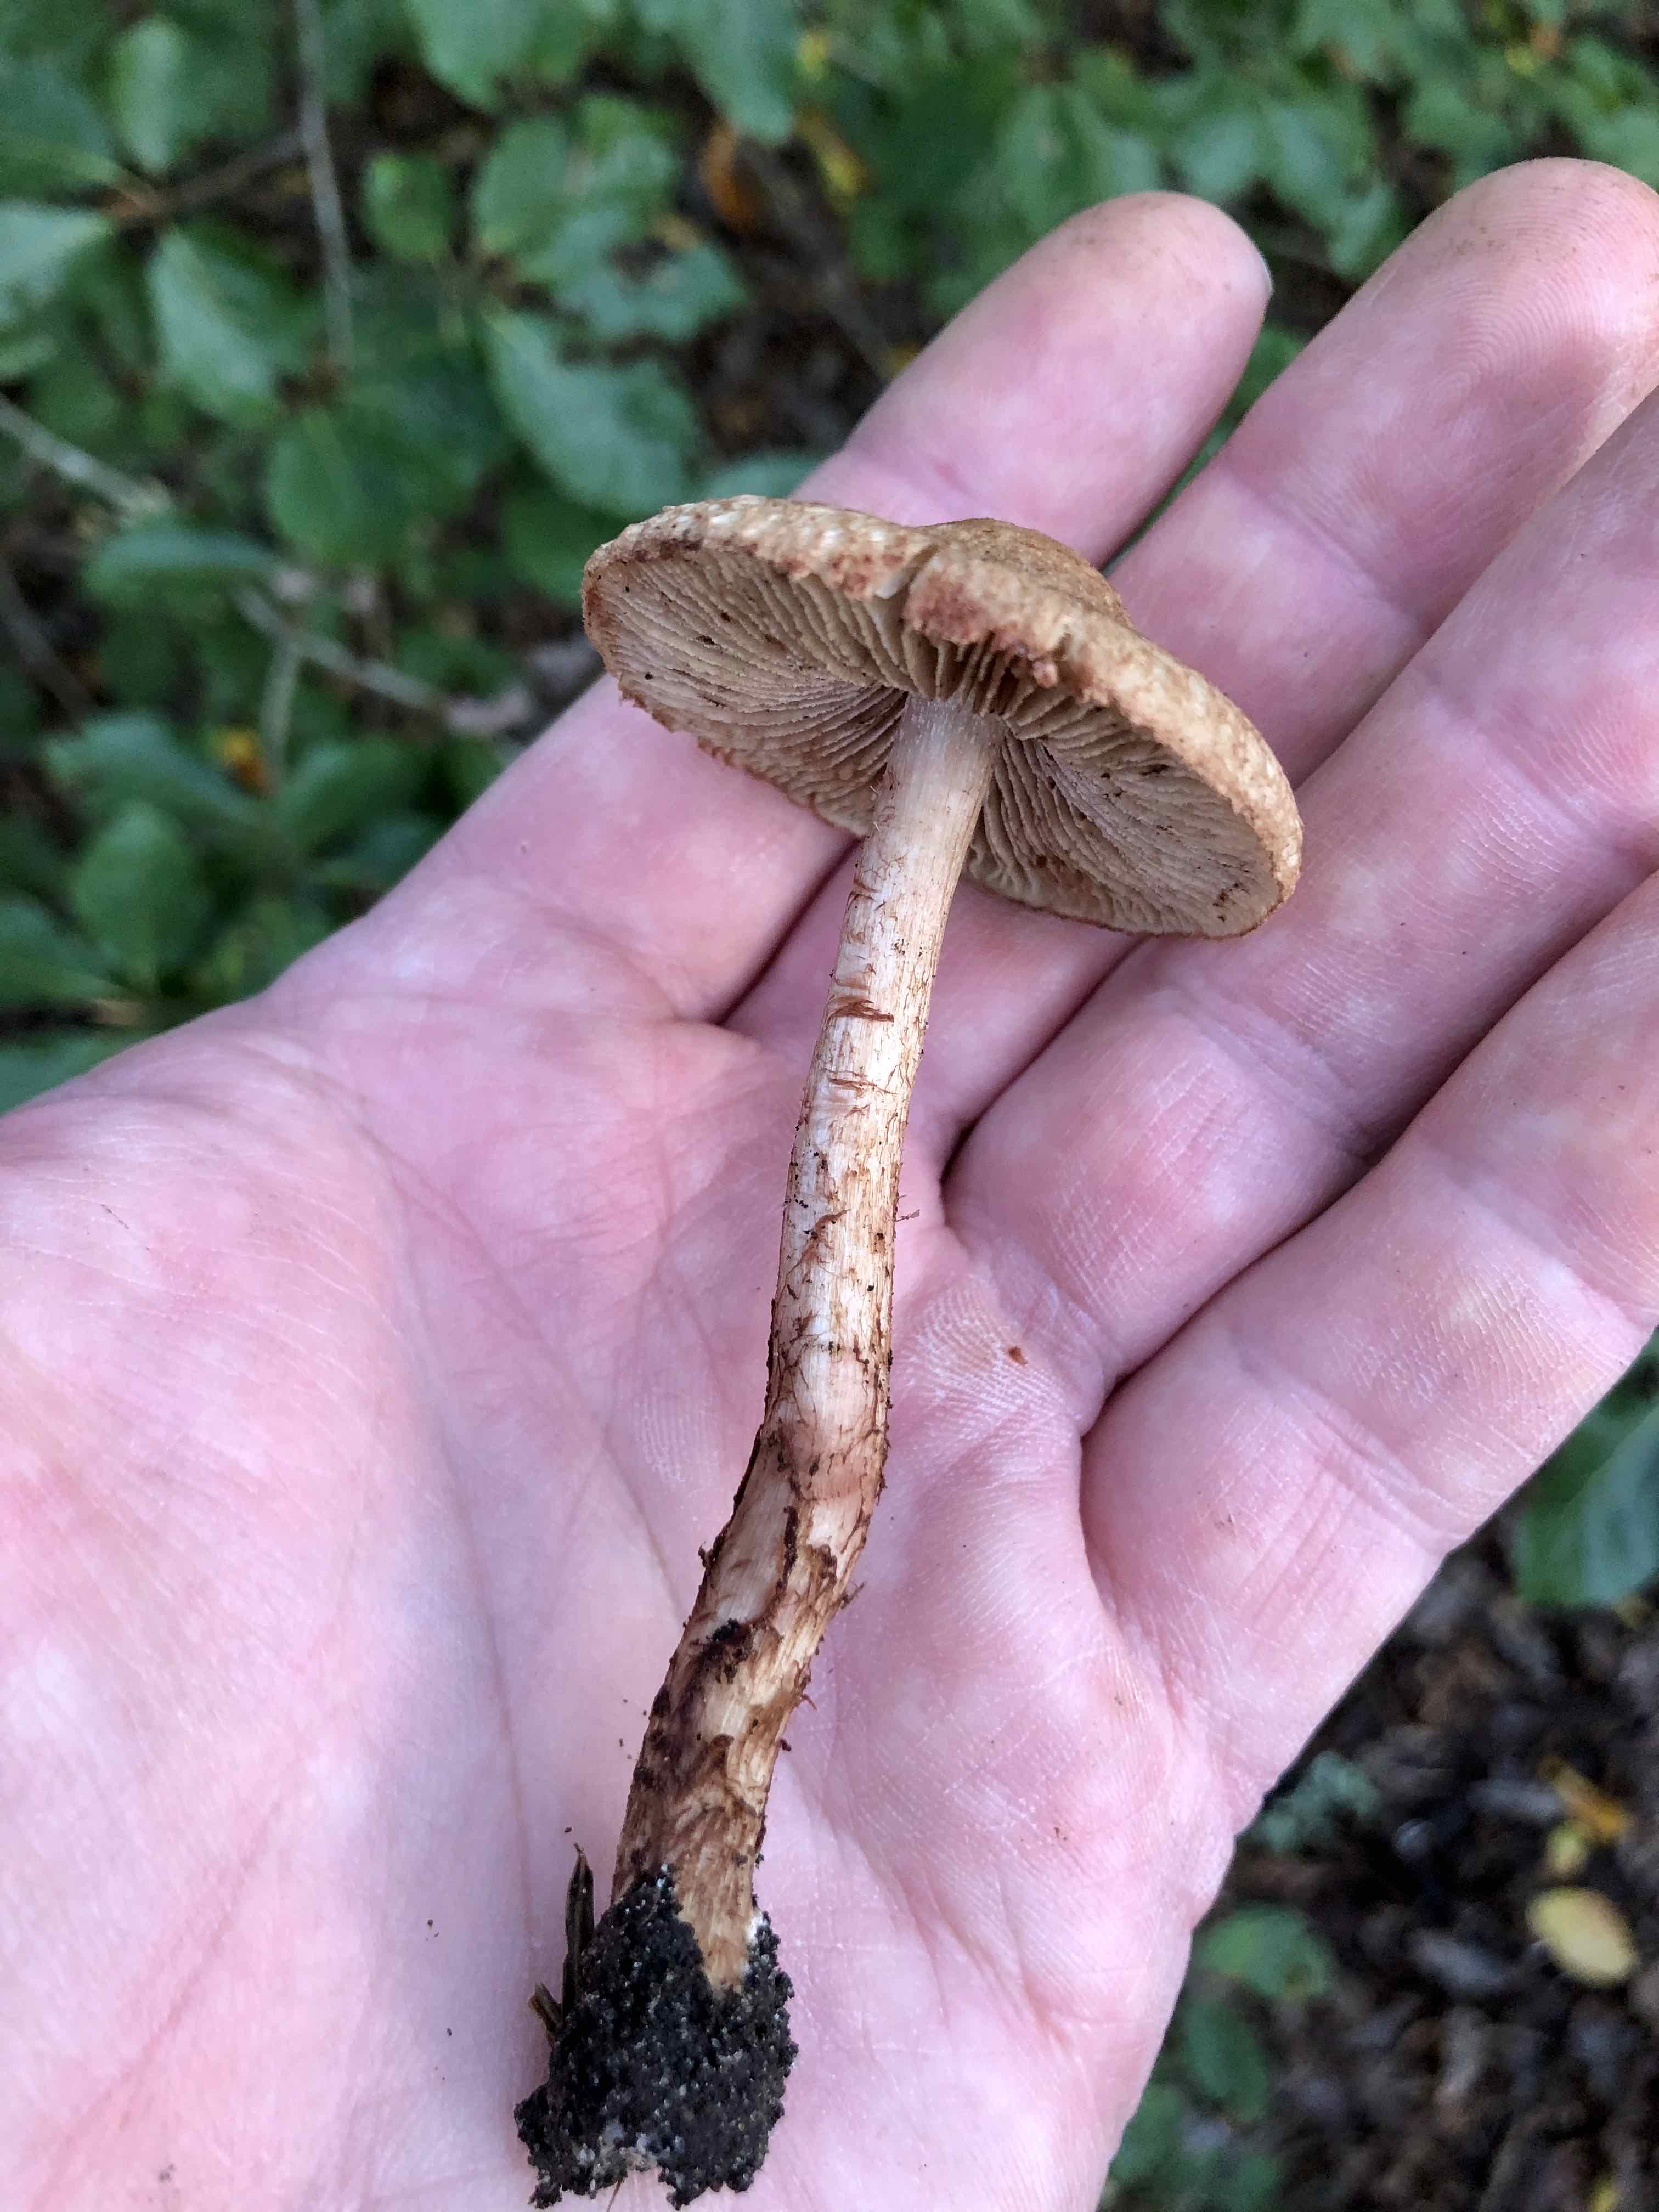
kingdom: Fungi
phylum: Basidiomycota
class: Agaricomycetes
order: Agaricales
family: Inocybaceae
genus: Inosperma
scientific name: Inosperma bongardii
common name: Bongards trævlhat
